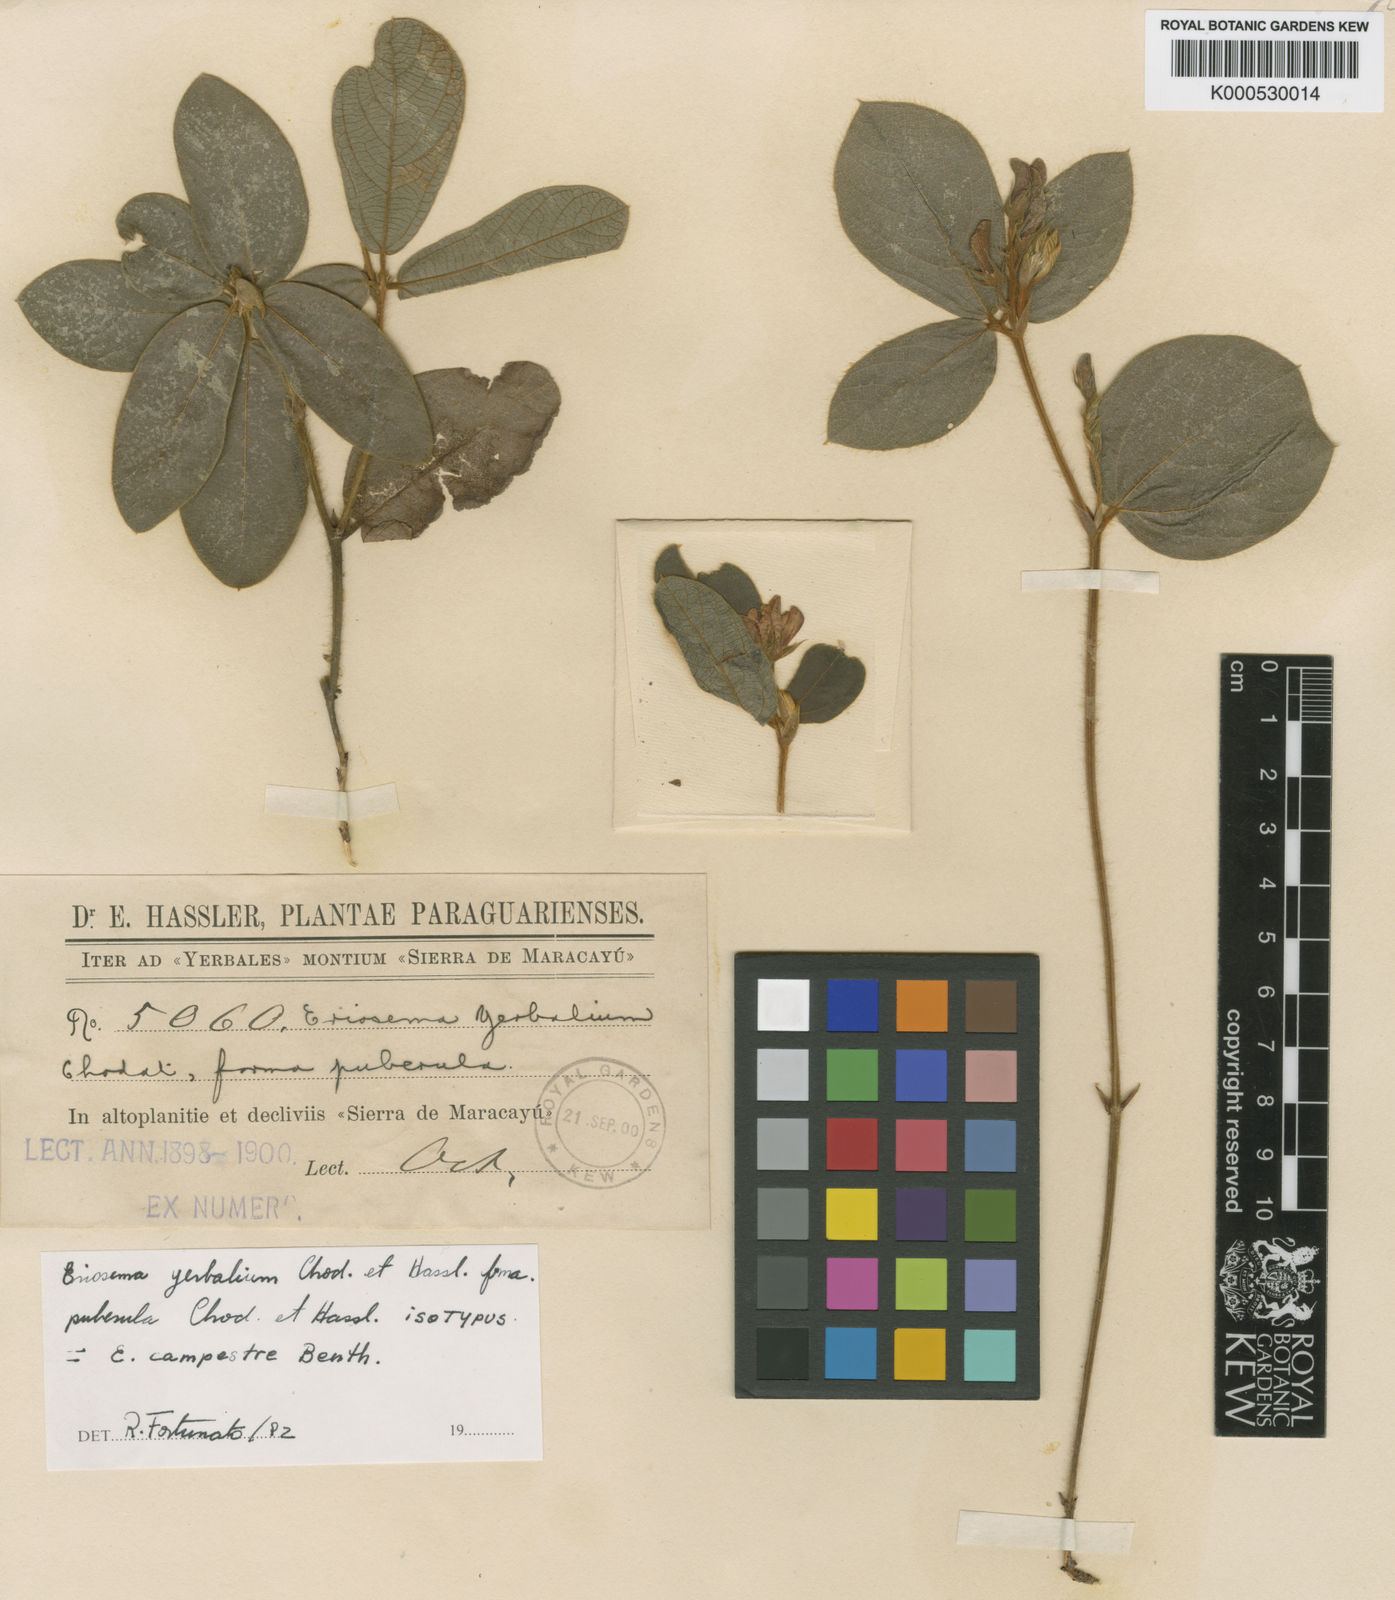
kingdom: Plantae
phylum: Tracheophyta
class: Magnoliopsida
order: Fabales
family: Fabaceae
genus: Eriosema
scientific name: Eriosema campestre
